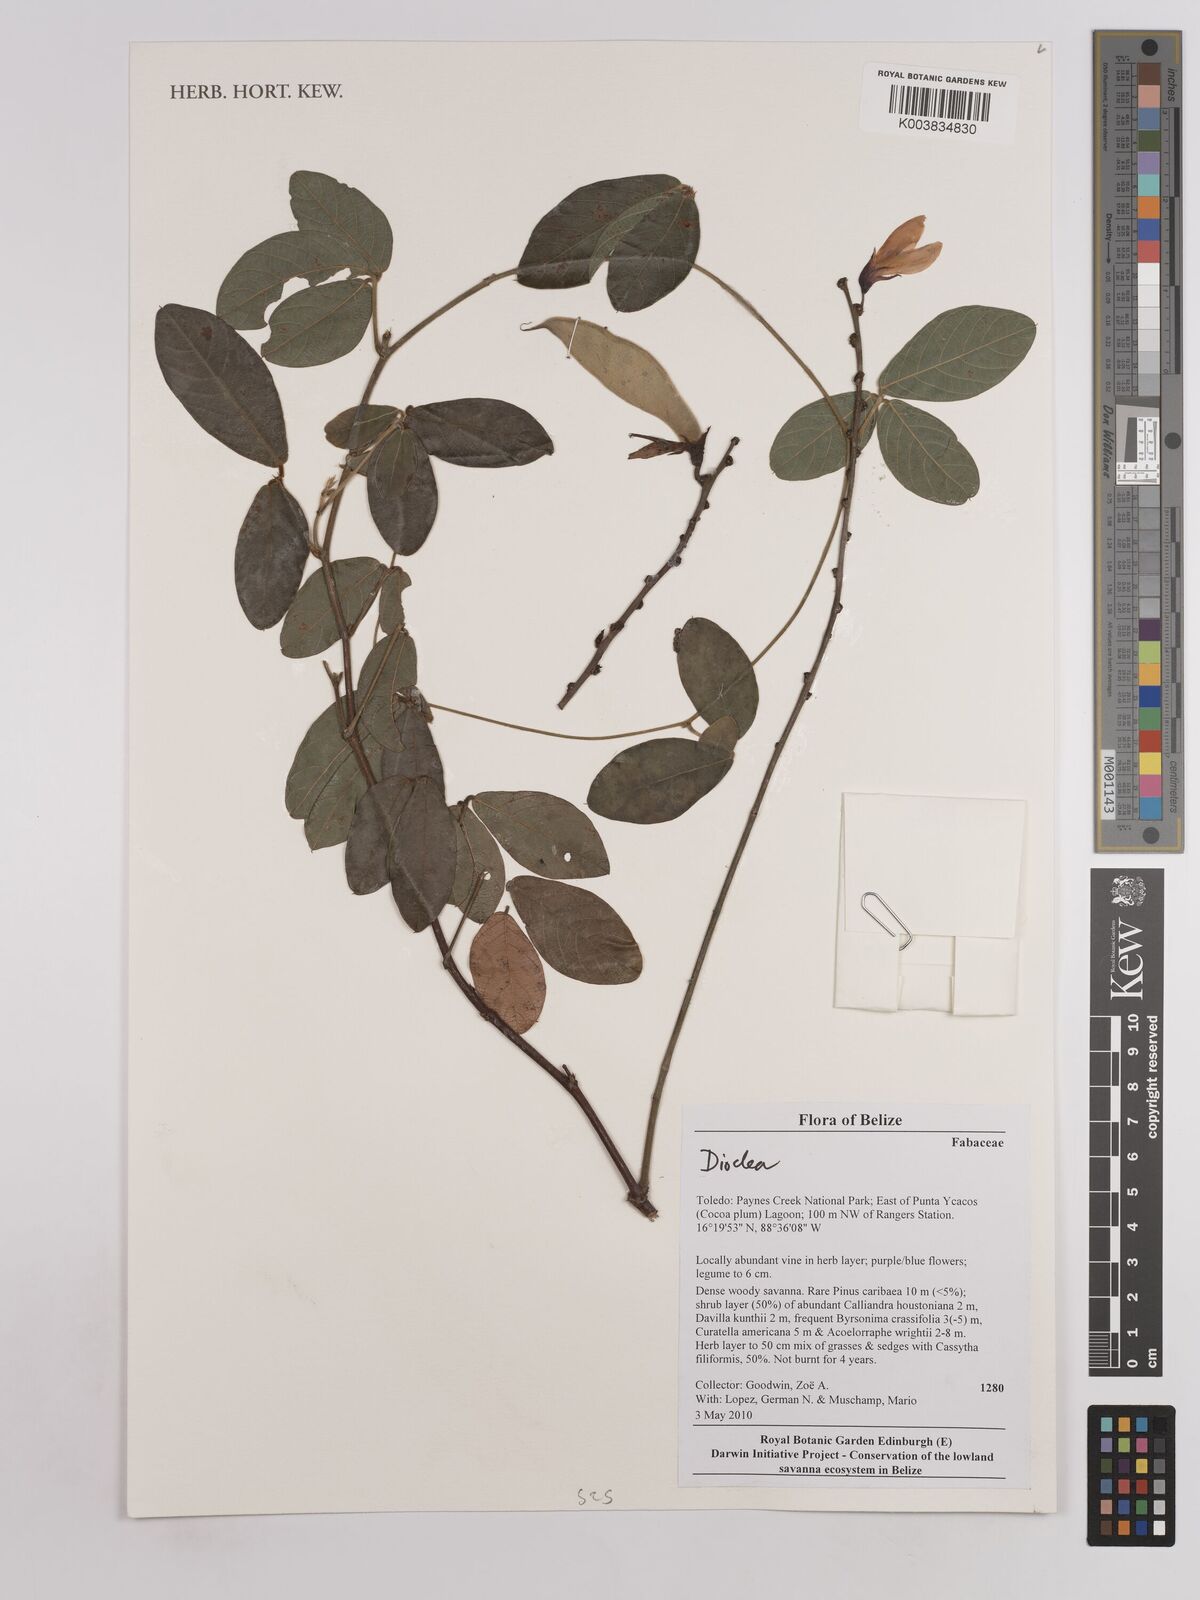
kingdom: Plantae
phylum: Tracheophyta
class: Magnoliopsida
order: Fabales
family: Fabaceae
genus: Dioclea
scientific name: Dioclea
